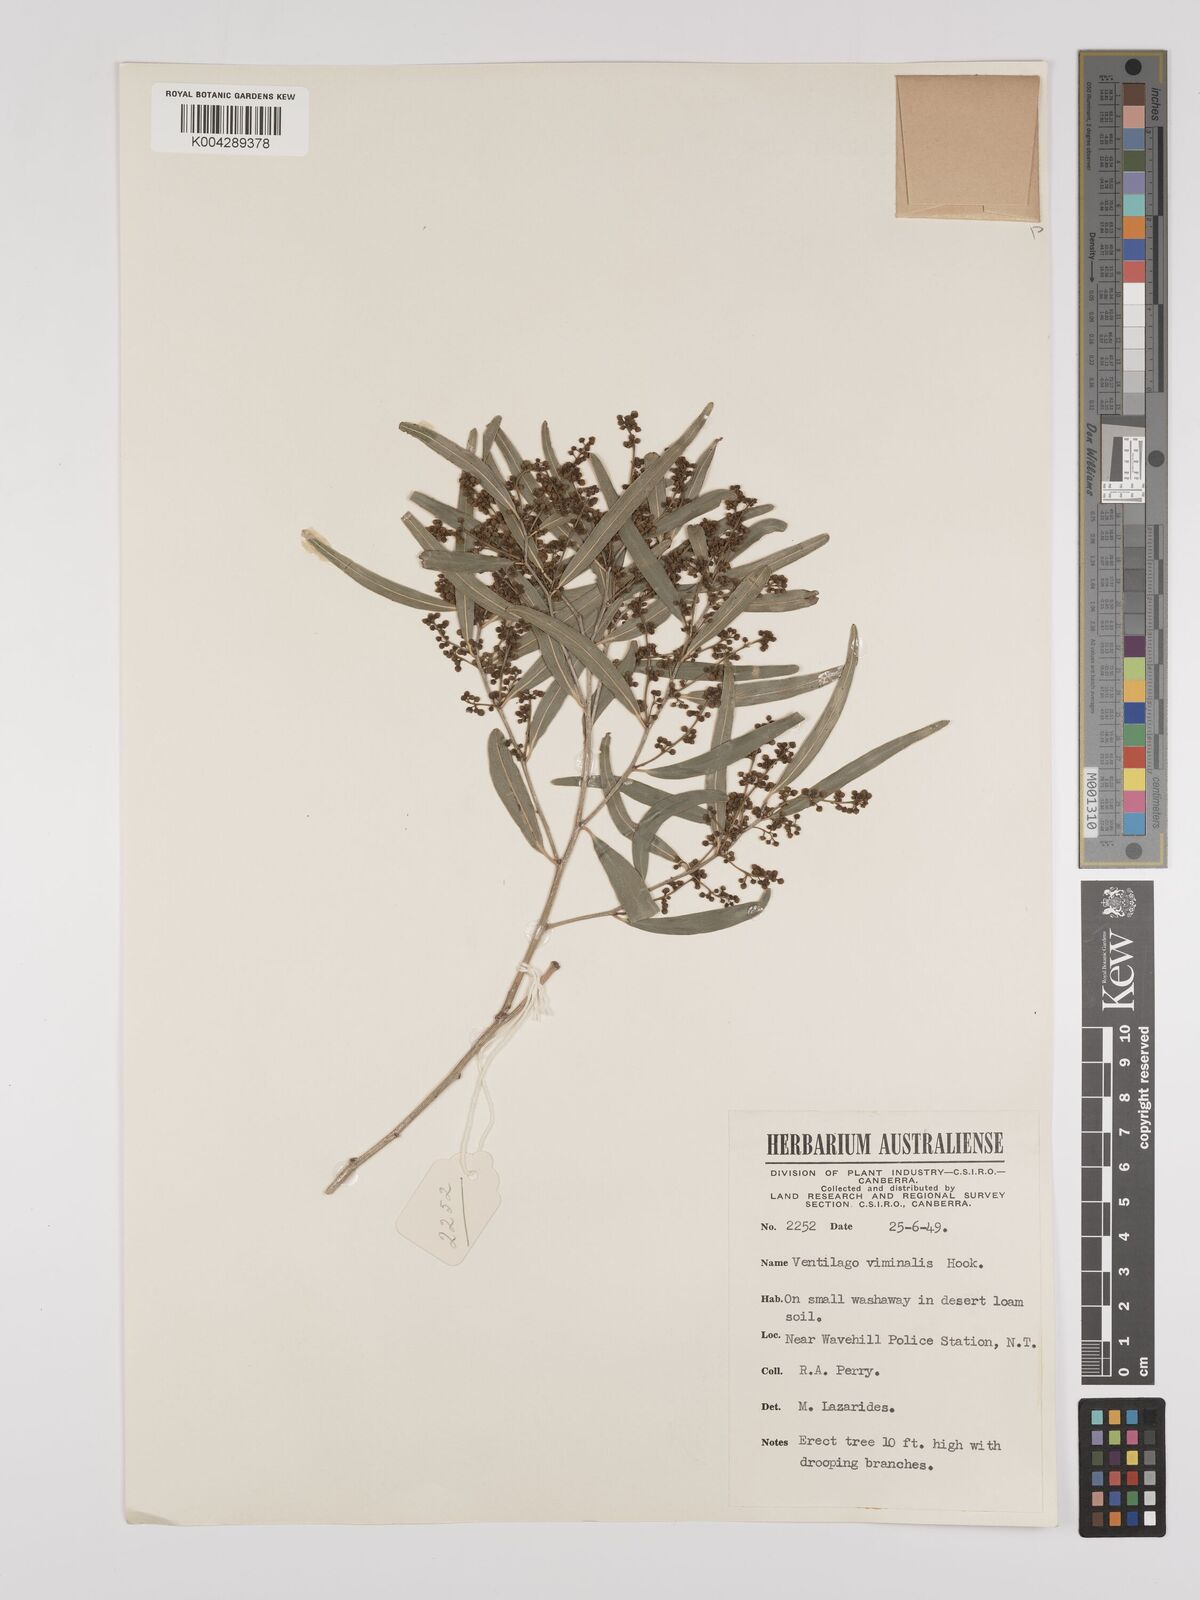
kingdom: Plantae
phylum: Tracheophyta
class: Magnoliopsida
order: Rosales
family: Rhamnaceae
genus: Ventilago
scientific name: Ventilago viminalis
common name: Medicine-bark
